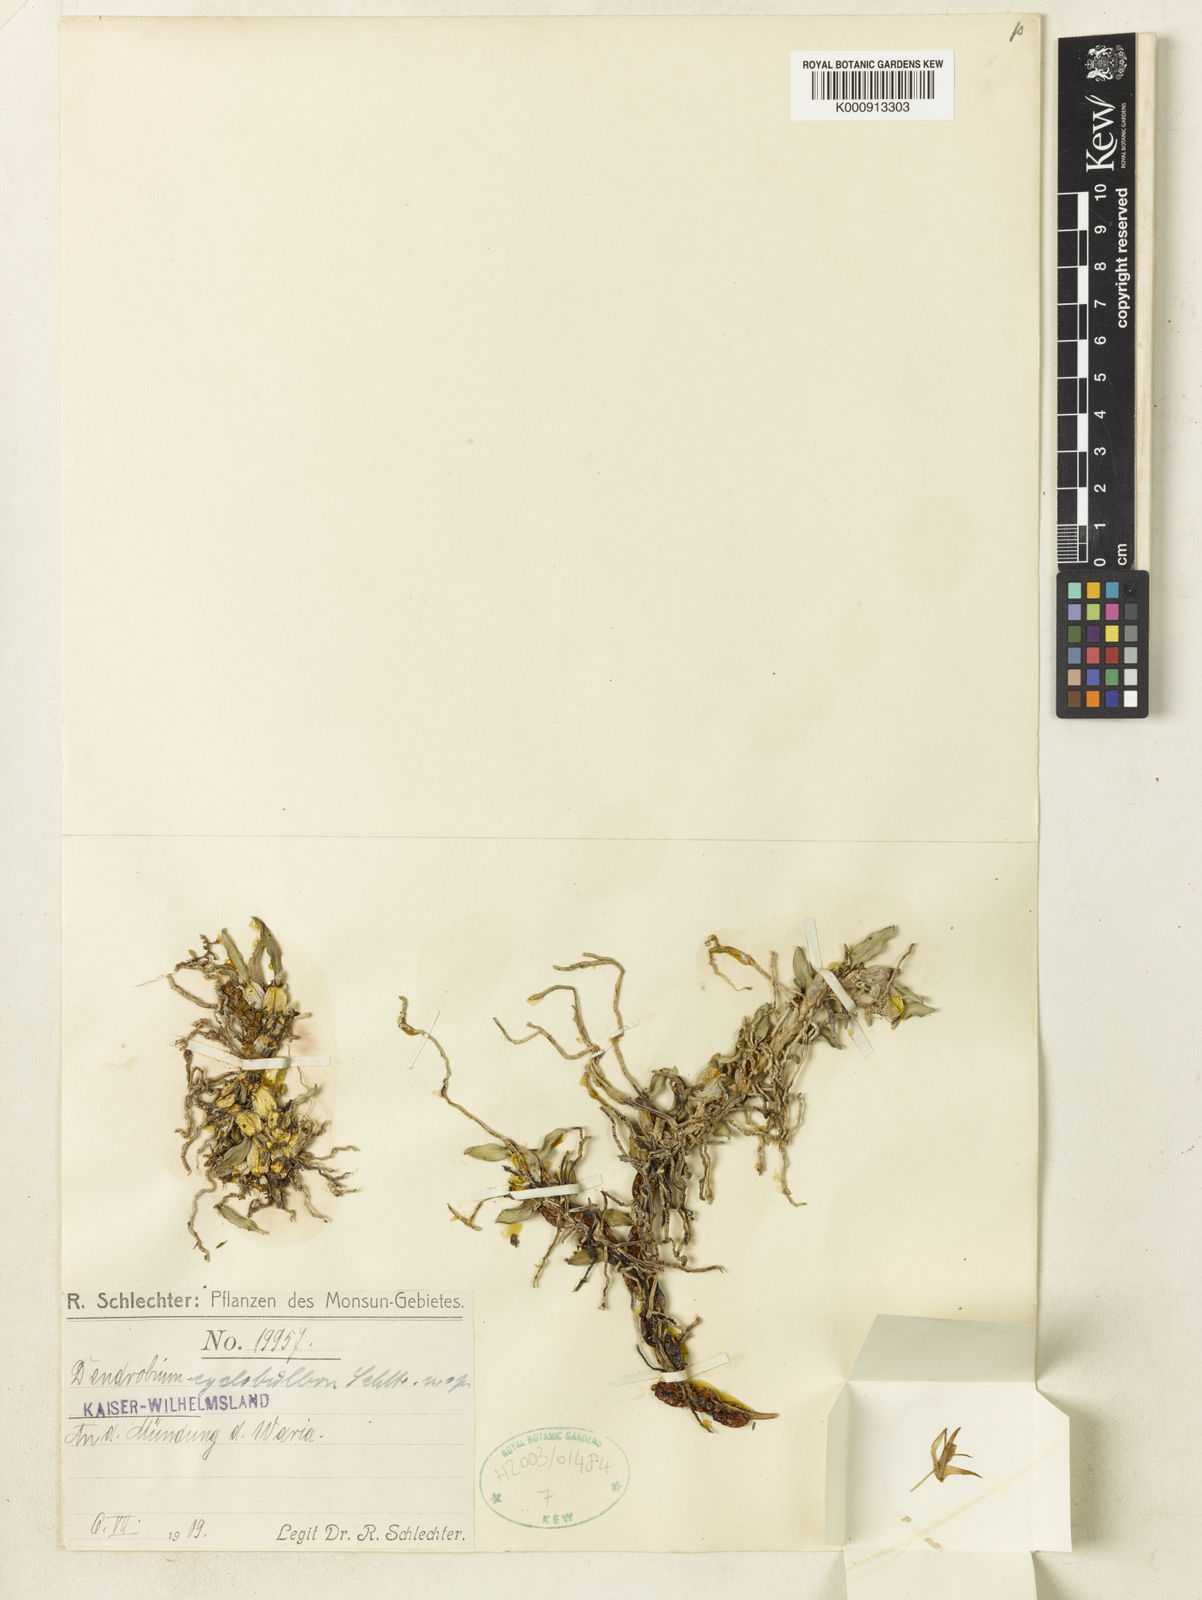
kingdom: Plantae
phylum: Tracheophyta
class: Liliopsida
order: Asparagales
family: Orchidaceae
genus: Dendrobium
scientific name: Dendrobium cyclobulbon
